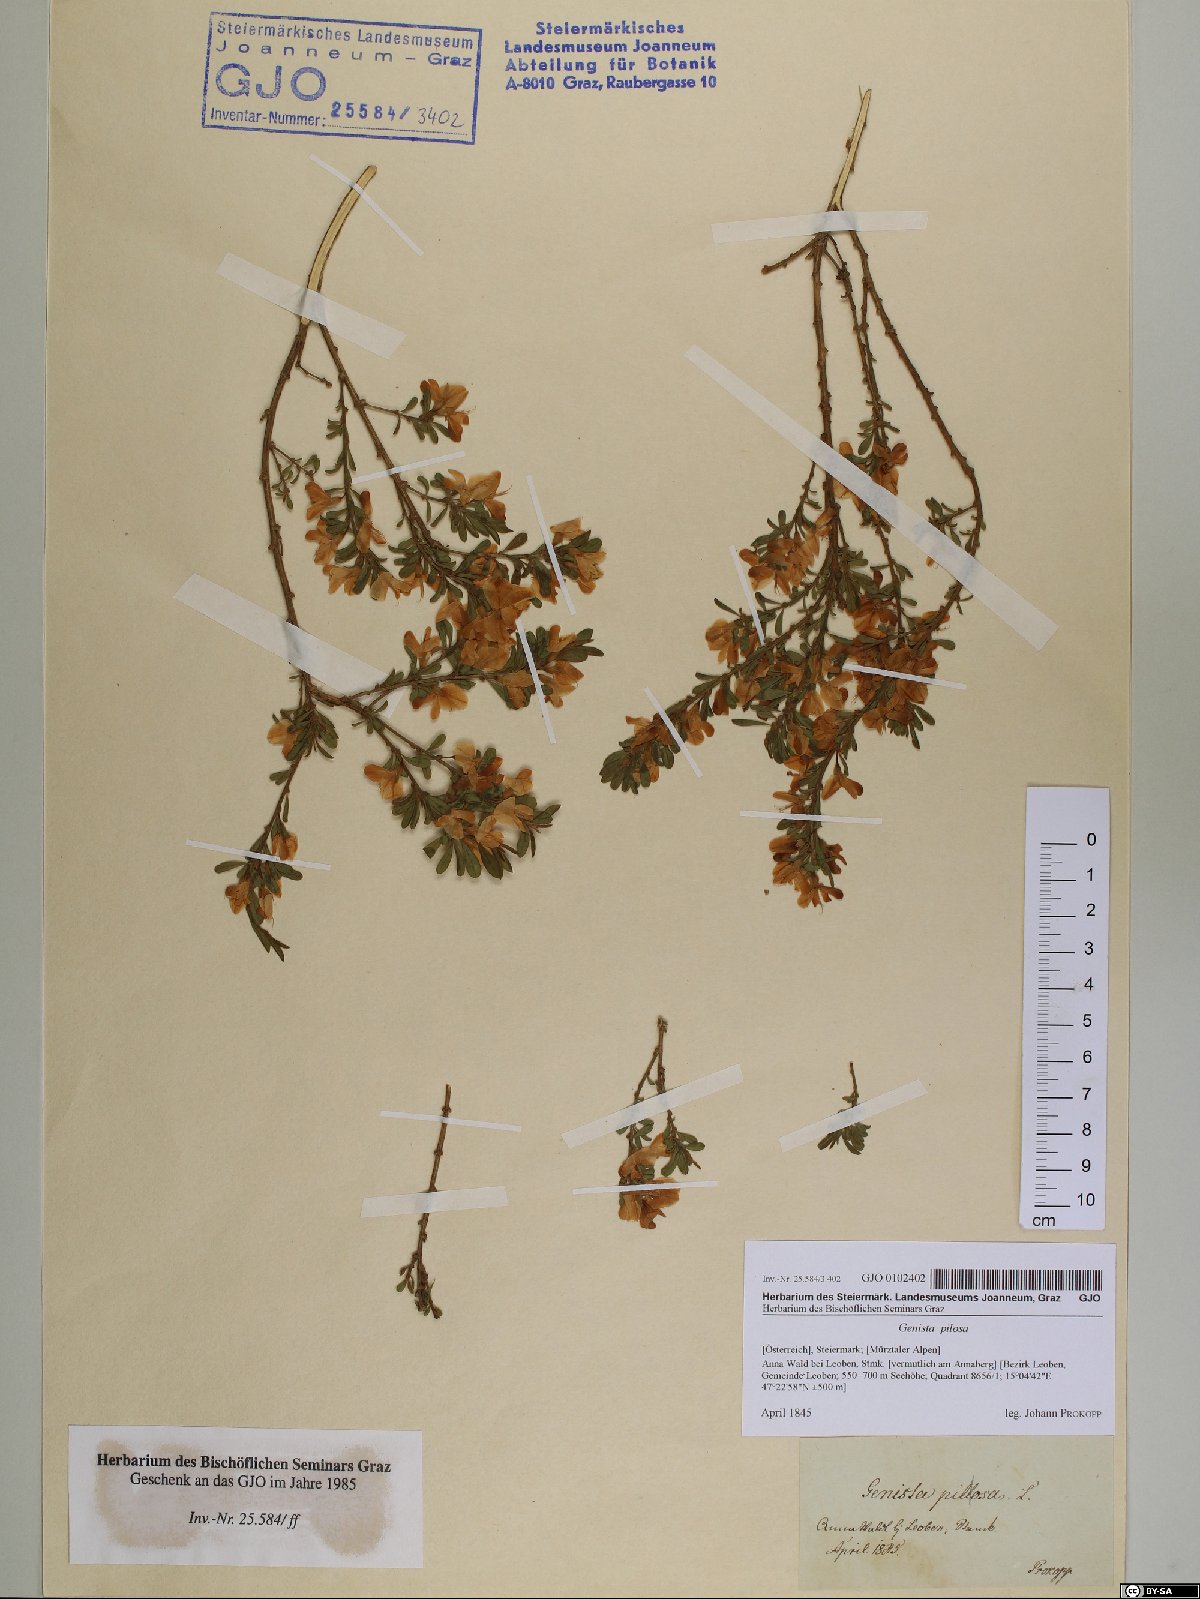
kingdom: Plantae
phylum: Tracheophyta
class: Magnoliopsida
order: Fabales
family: Fabaceae
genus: Genista
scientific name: Genista pilosa
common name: Hairy greenweed
